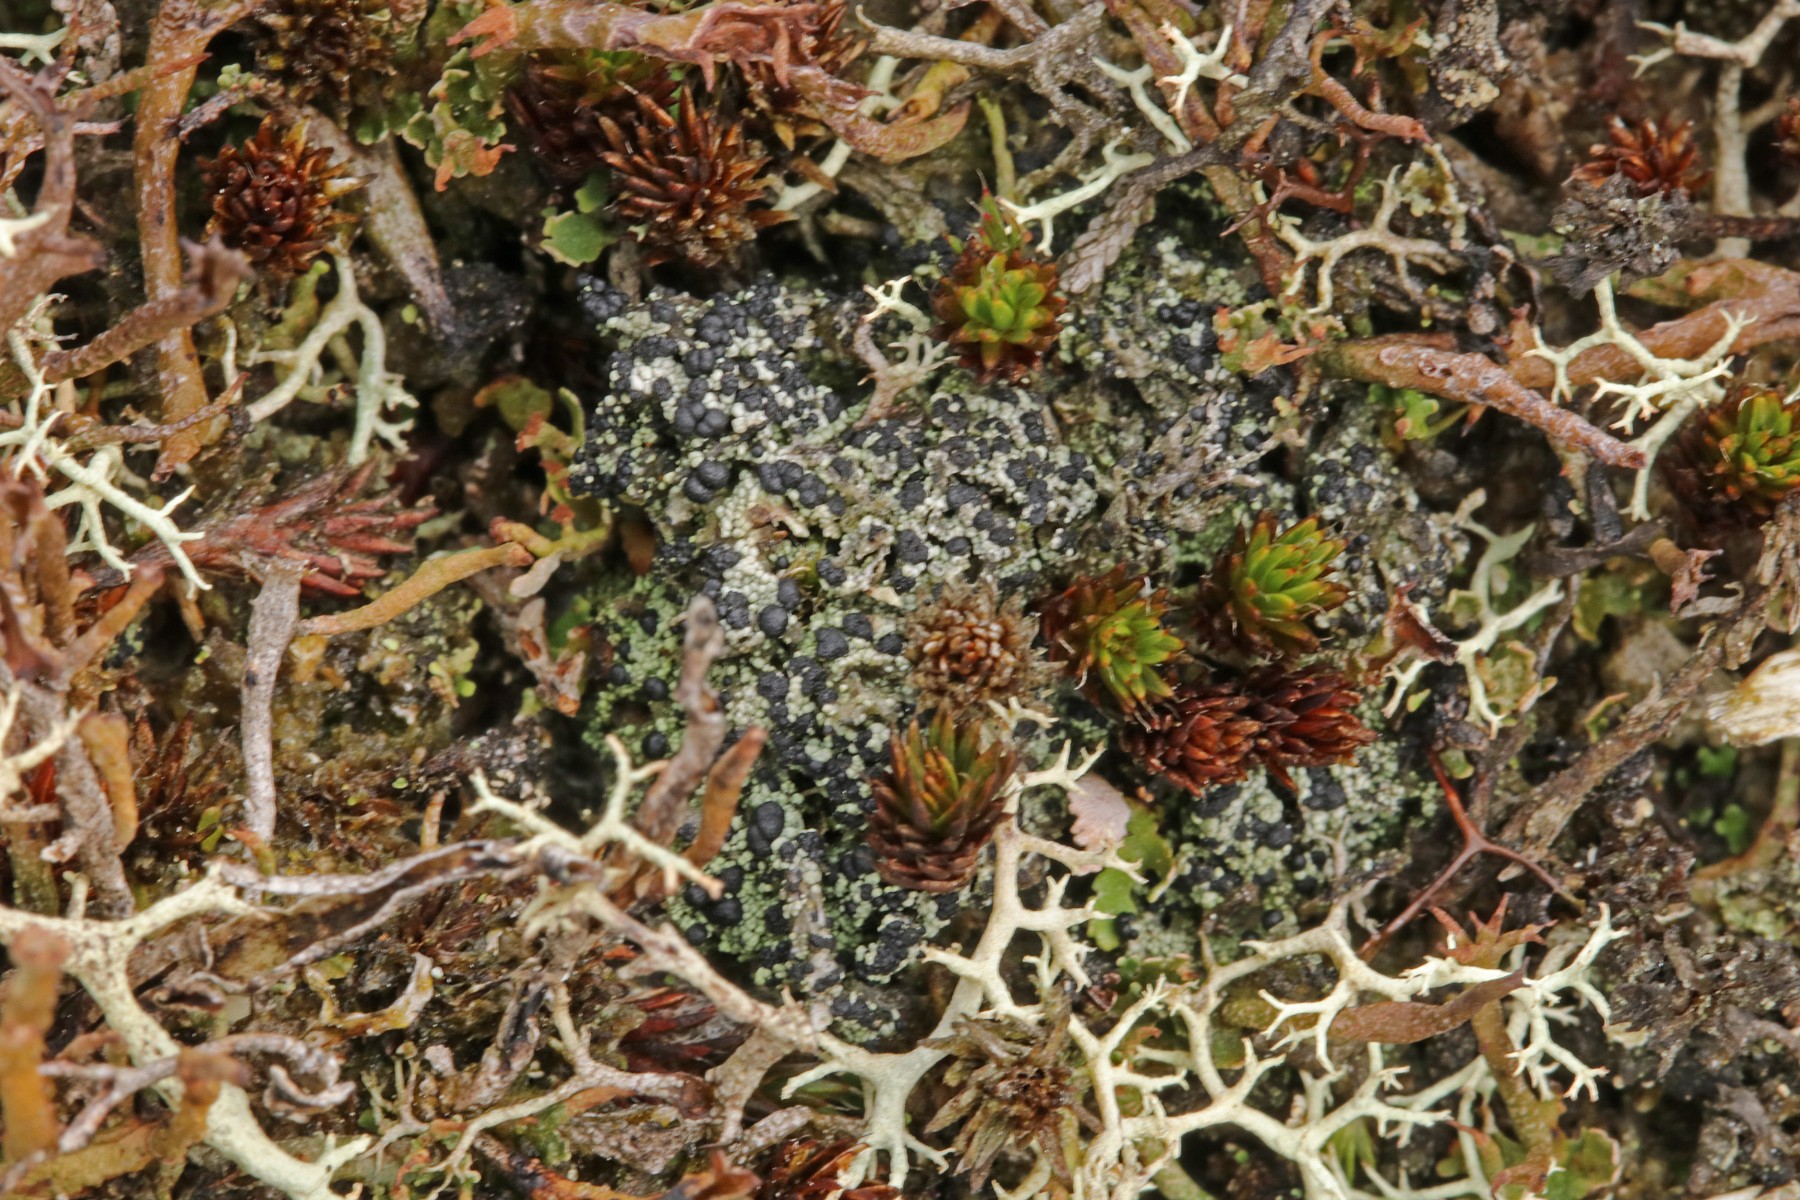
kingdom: Fungi
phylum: Ascomycota
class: Lecanoromycetes
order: Lecanorales
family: Byssolomataceae
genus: Micarea
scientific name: Micarea lignaria
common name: tørve-knaplav
